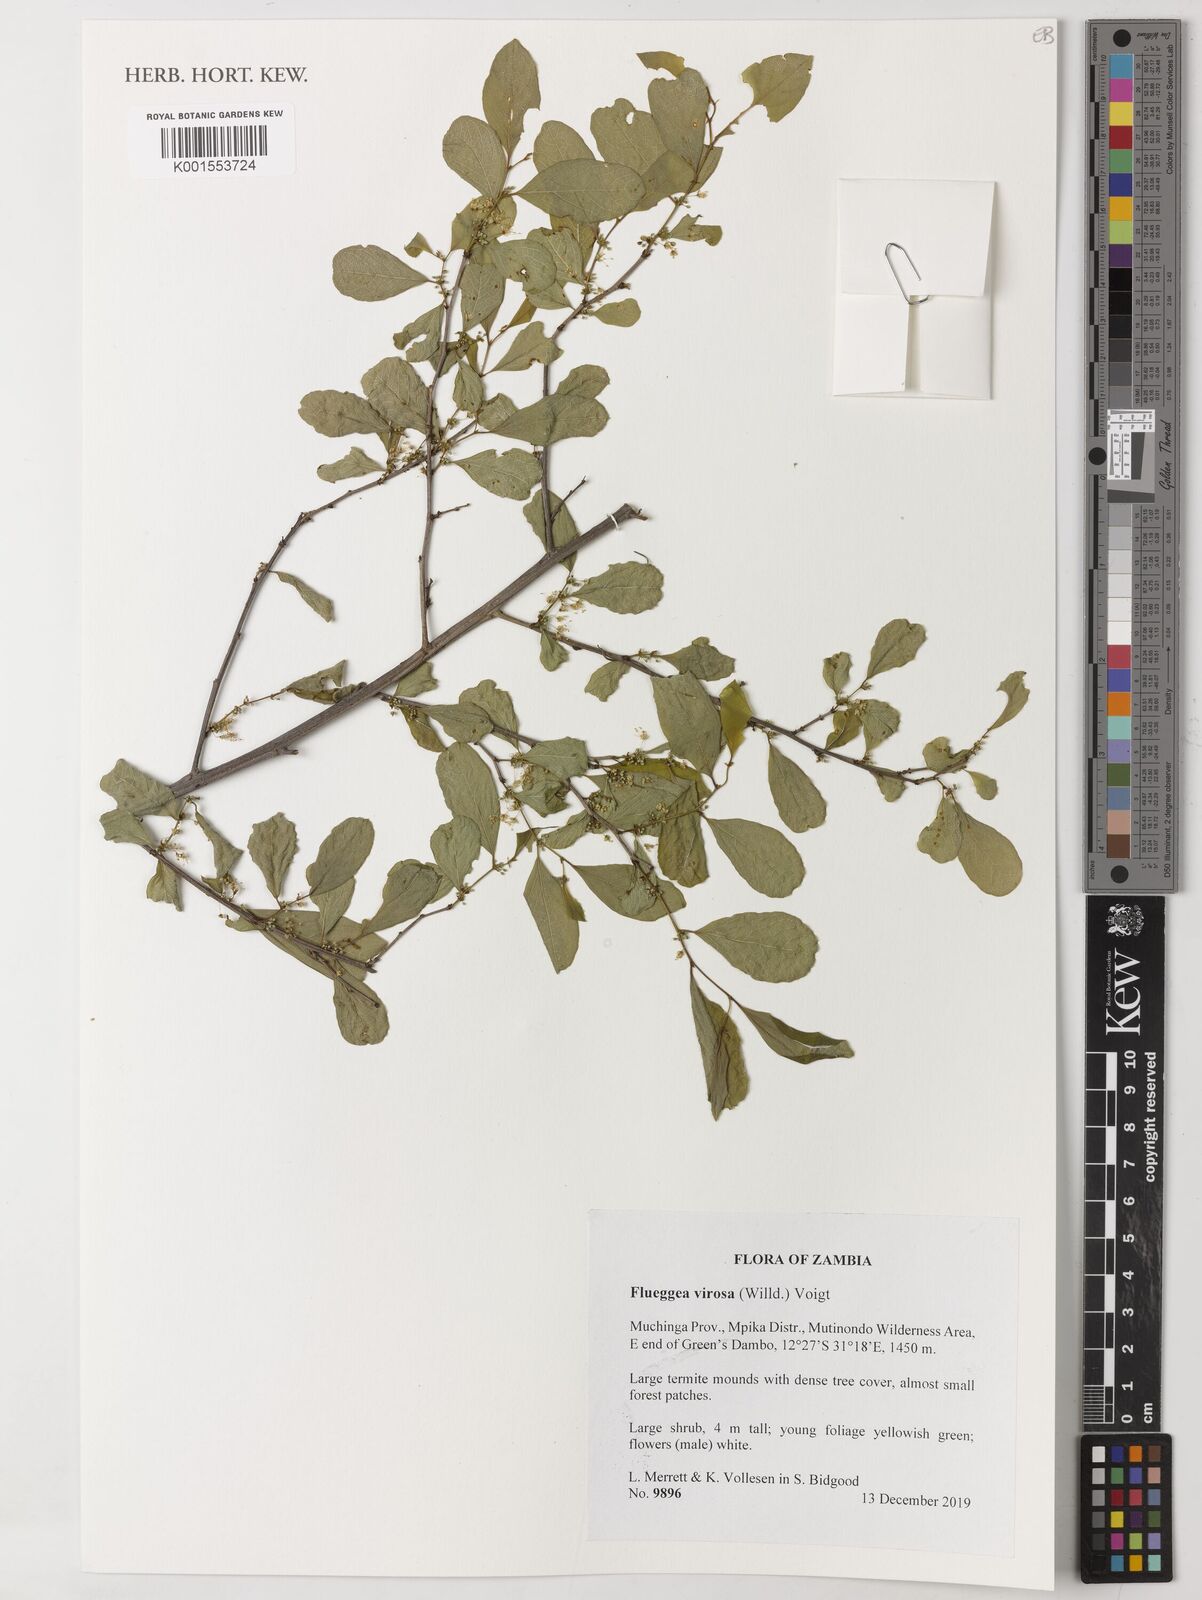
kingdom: Plantae
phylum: Tracheophyta
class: Magnoliopsida
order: Malpighiales
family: Phyllanthaceae
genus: Flueggea
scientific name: Flueggea virosa
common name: Common bushweed
